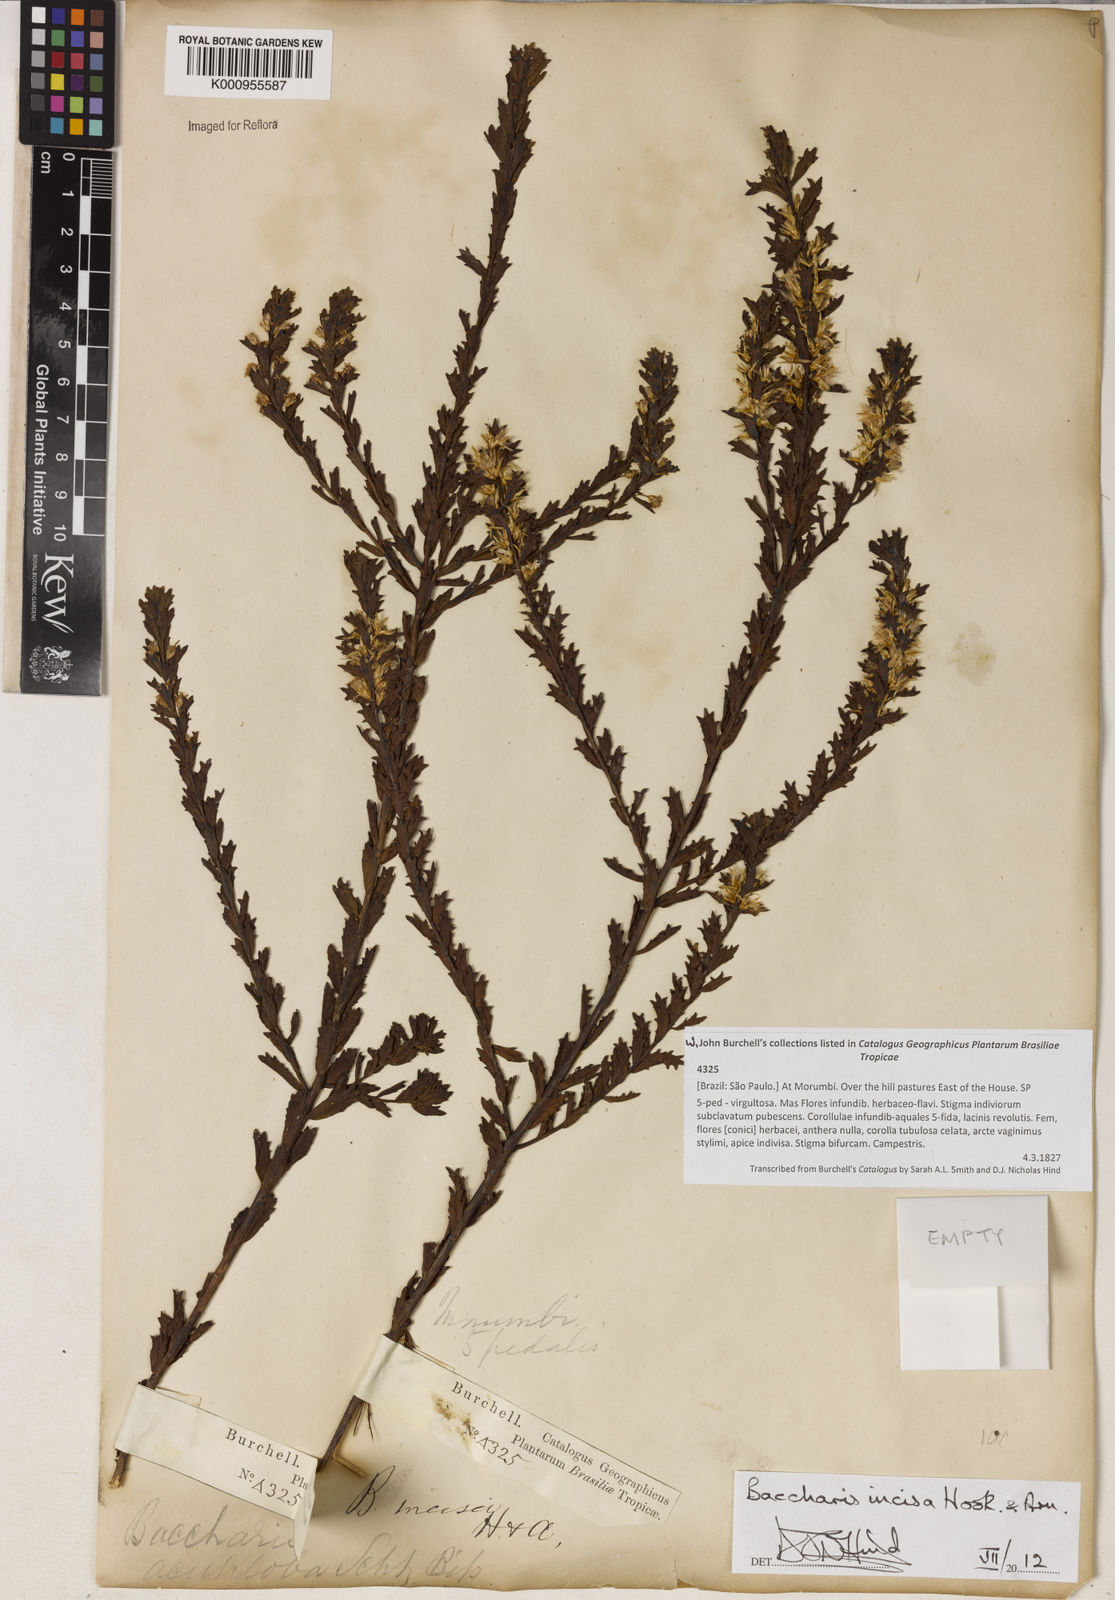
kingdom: Plantae
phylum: Tracheophyta
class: Magnoliopsida
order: Asterales
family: Asteraceae
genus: Baccharis
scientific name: Baccharis incisa
